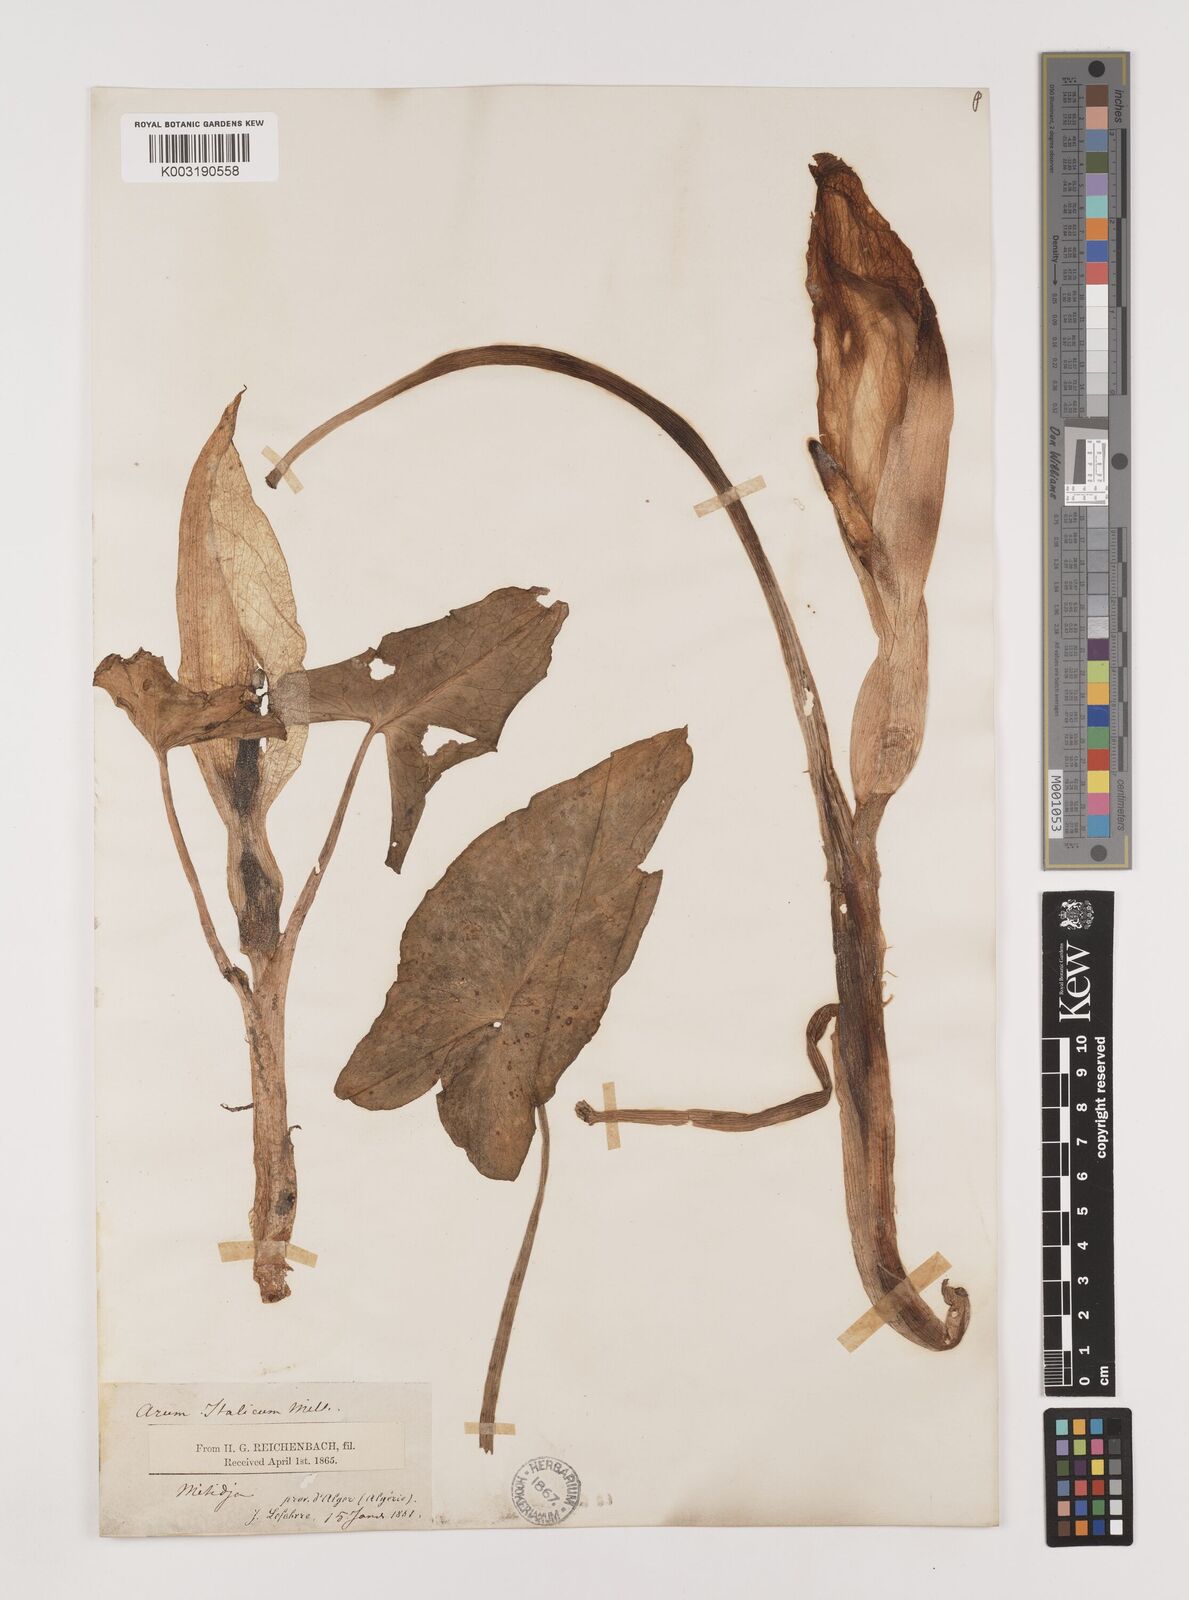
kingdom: Plantae
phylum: Tracheophyta
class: Liliopsida
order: Alismatales
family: Araceae
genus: Arum
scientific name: Arum italicum
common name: Italian lords-and-ladies
